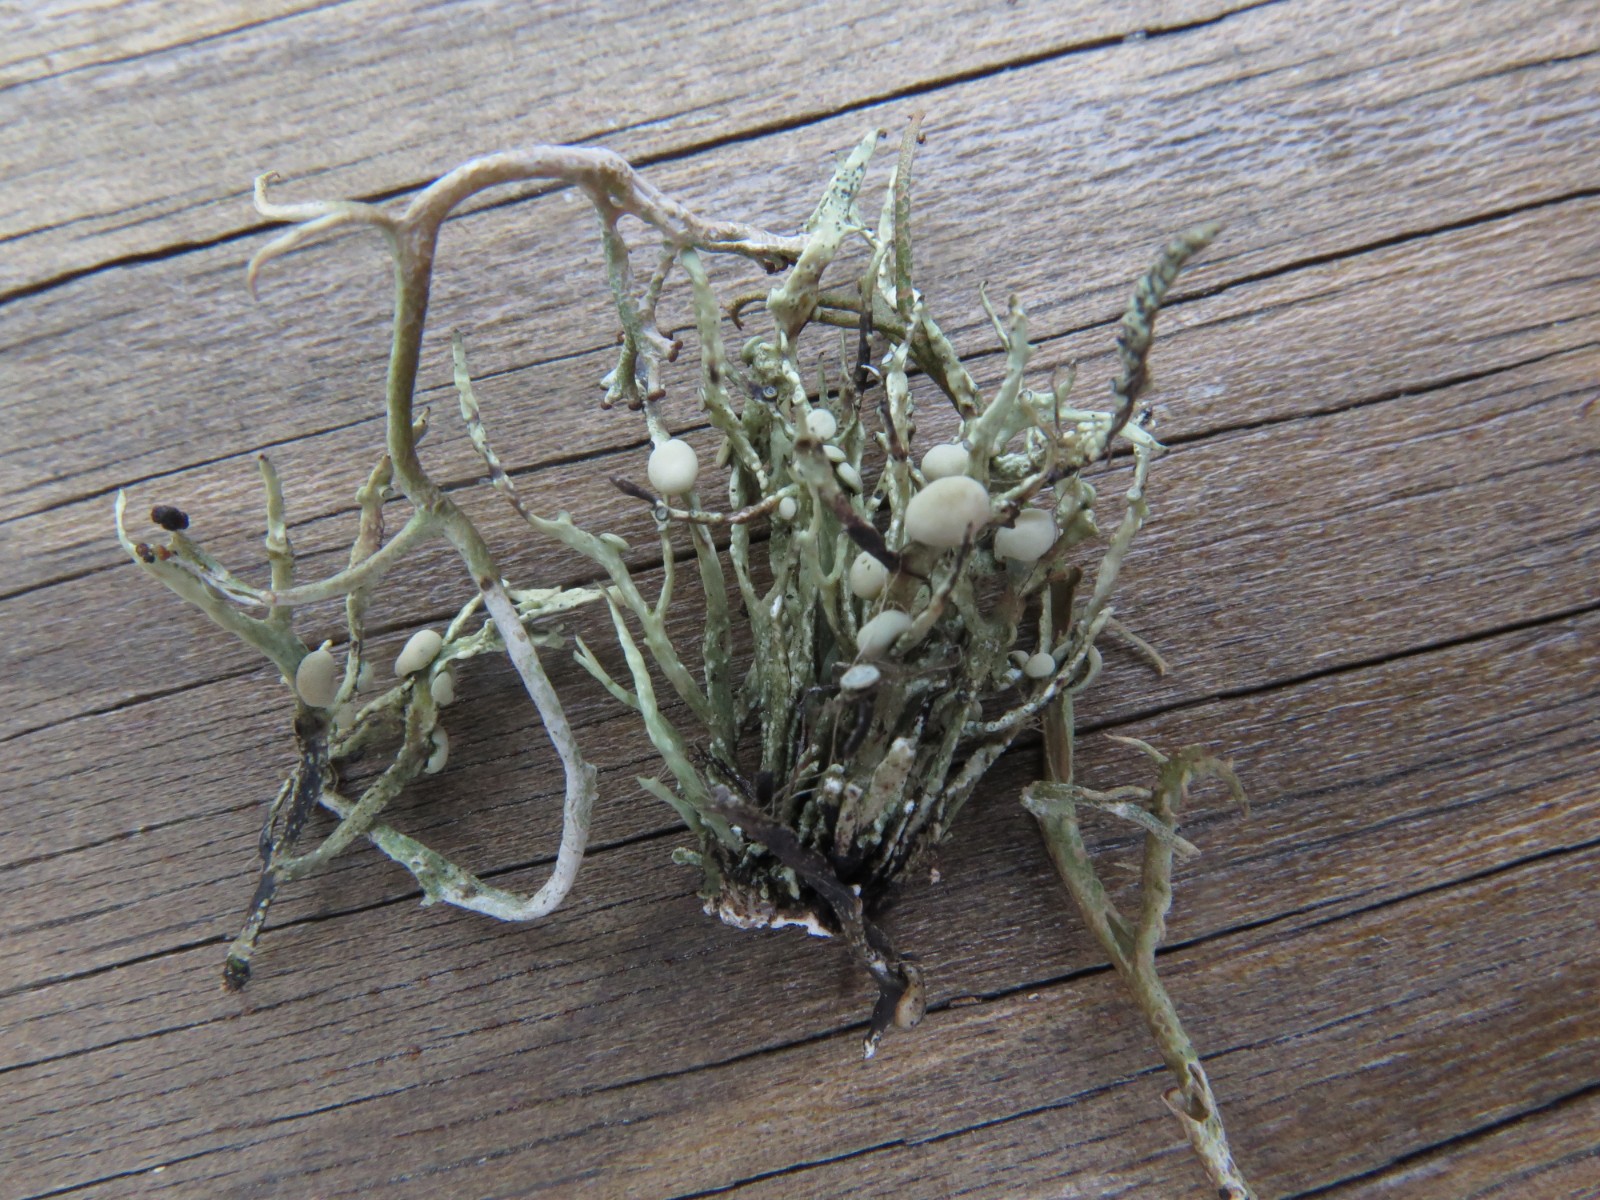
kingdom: Fungi
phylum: Ascomycota
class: Lecanoromycetes
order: Lecanorales
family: Ramalinaceae
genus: Ramalina
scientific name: Ramalina cuspidata
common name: børste-grenlav
